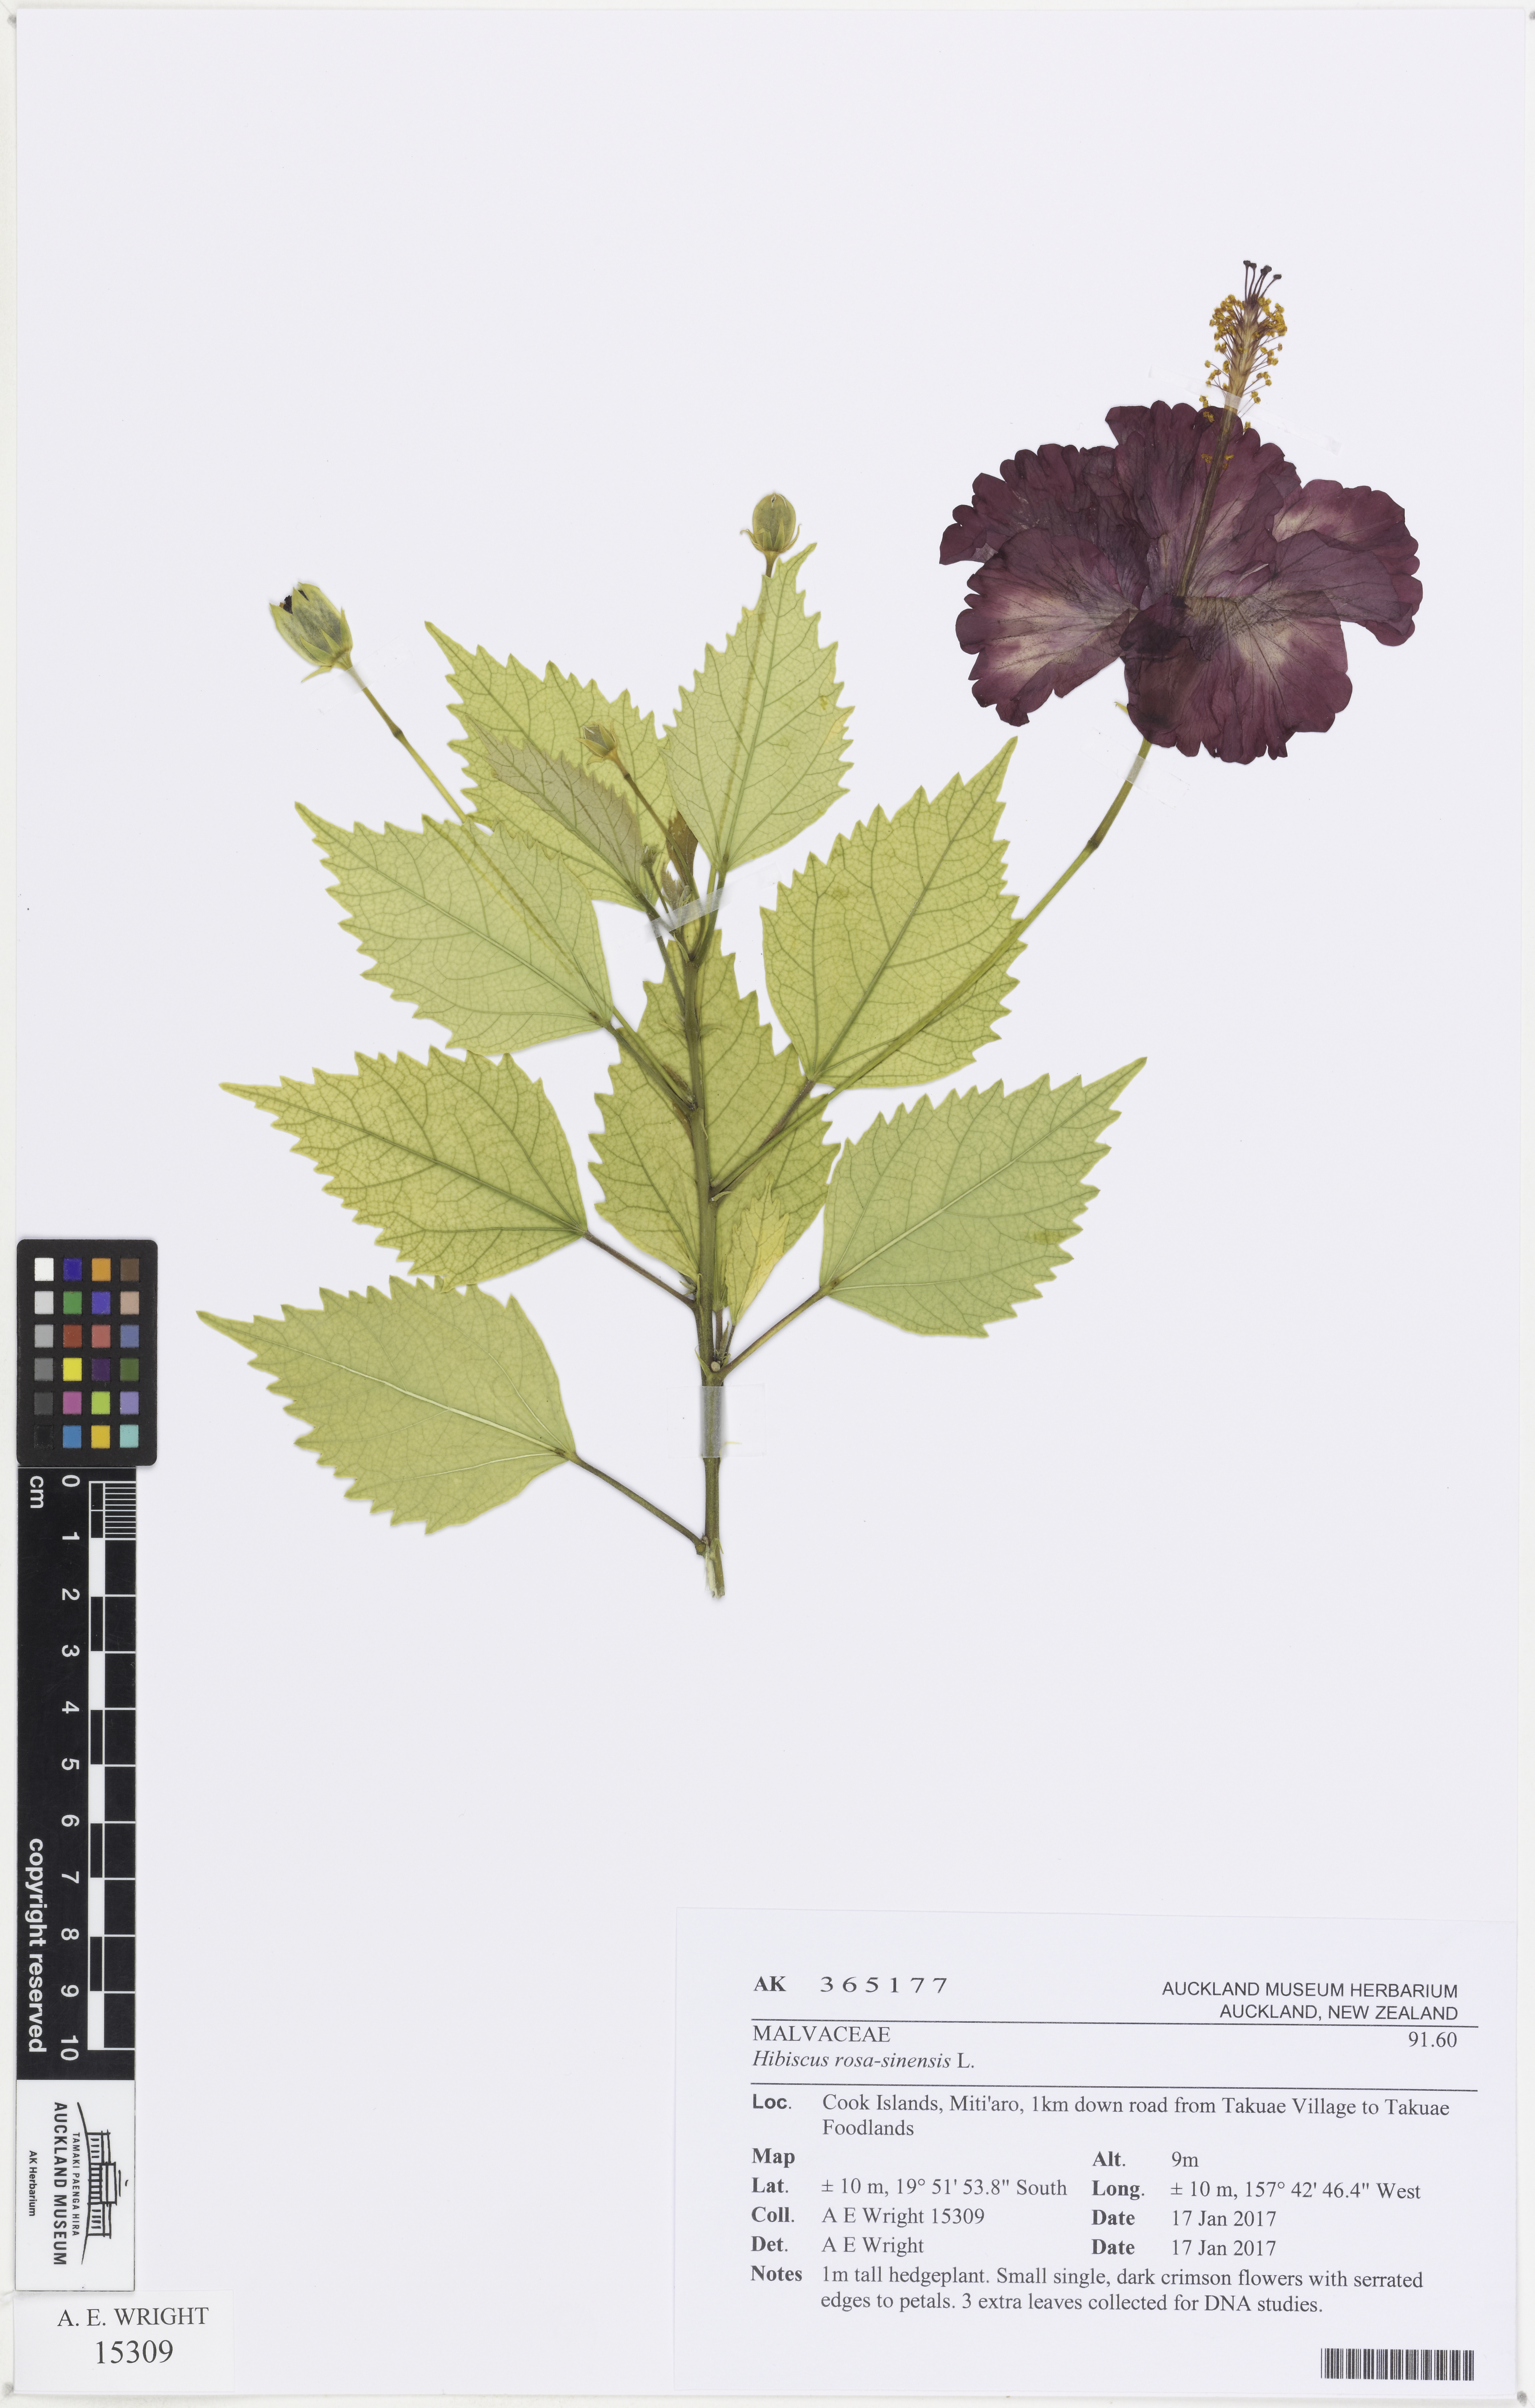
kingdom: Plantae
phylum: Tracheophyta
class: Magnoliopsida
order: Malvales
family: Malvaceae
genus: Hibiscus
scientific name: Hibiscus rosa-sinensis
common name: Hibiscus
